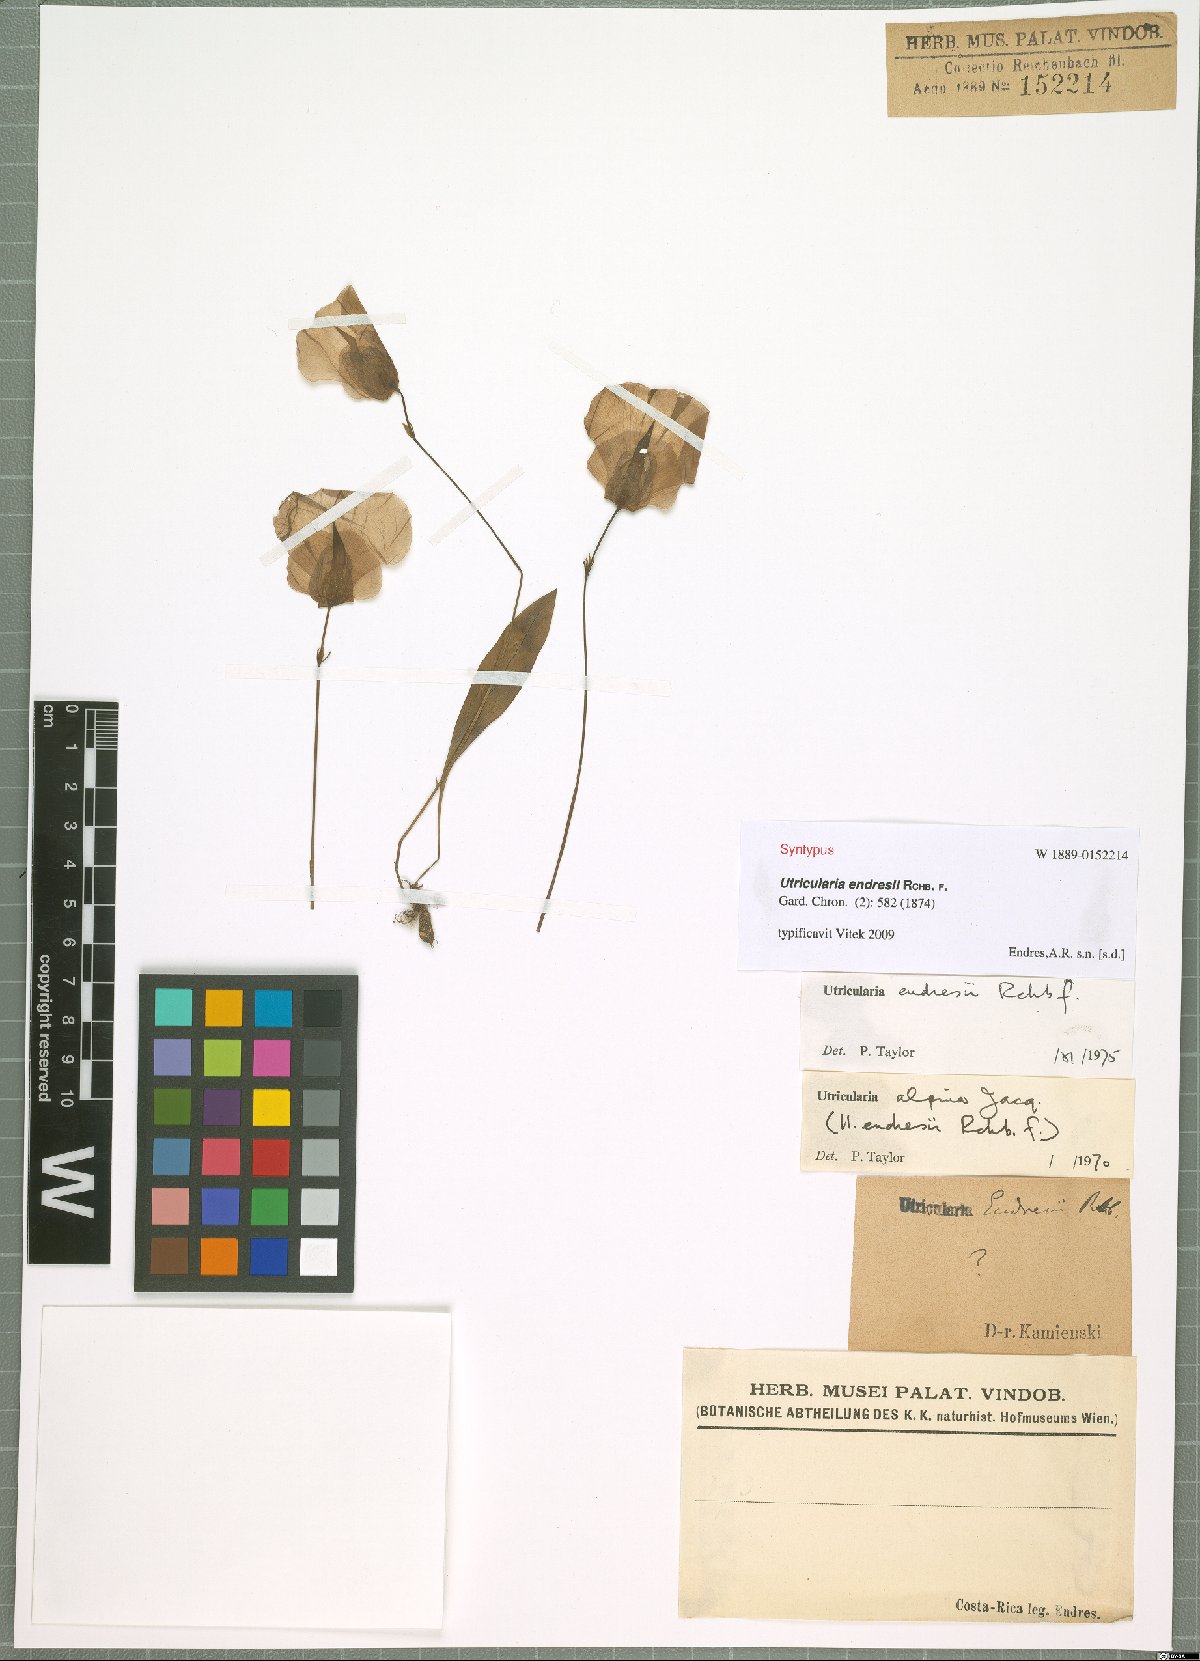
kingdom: Plantae
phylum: Tracheophyta
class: Magnoliopsida
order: Lamiales
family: Lentibulariaceae
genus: Utricularia
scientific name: Utricularia endresii
